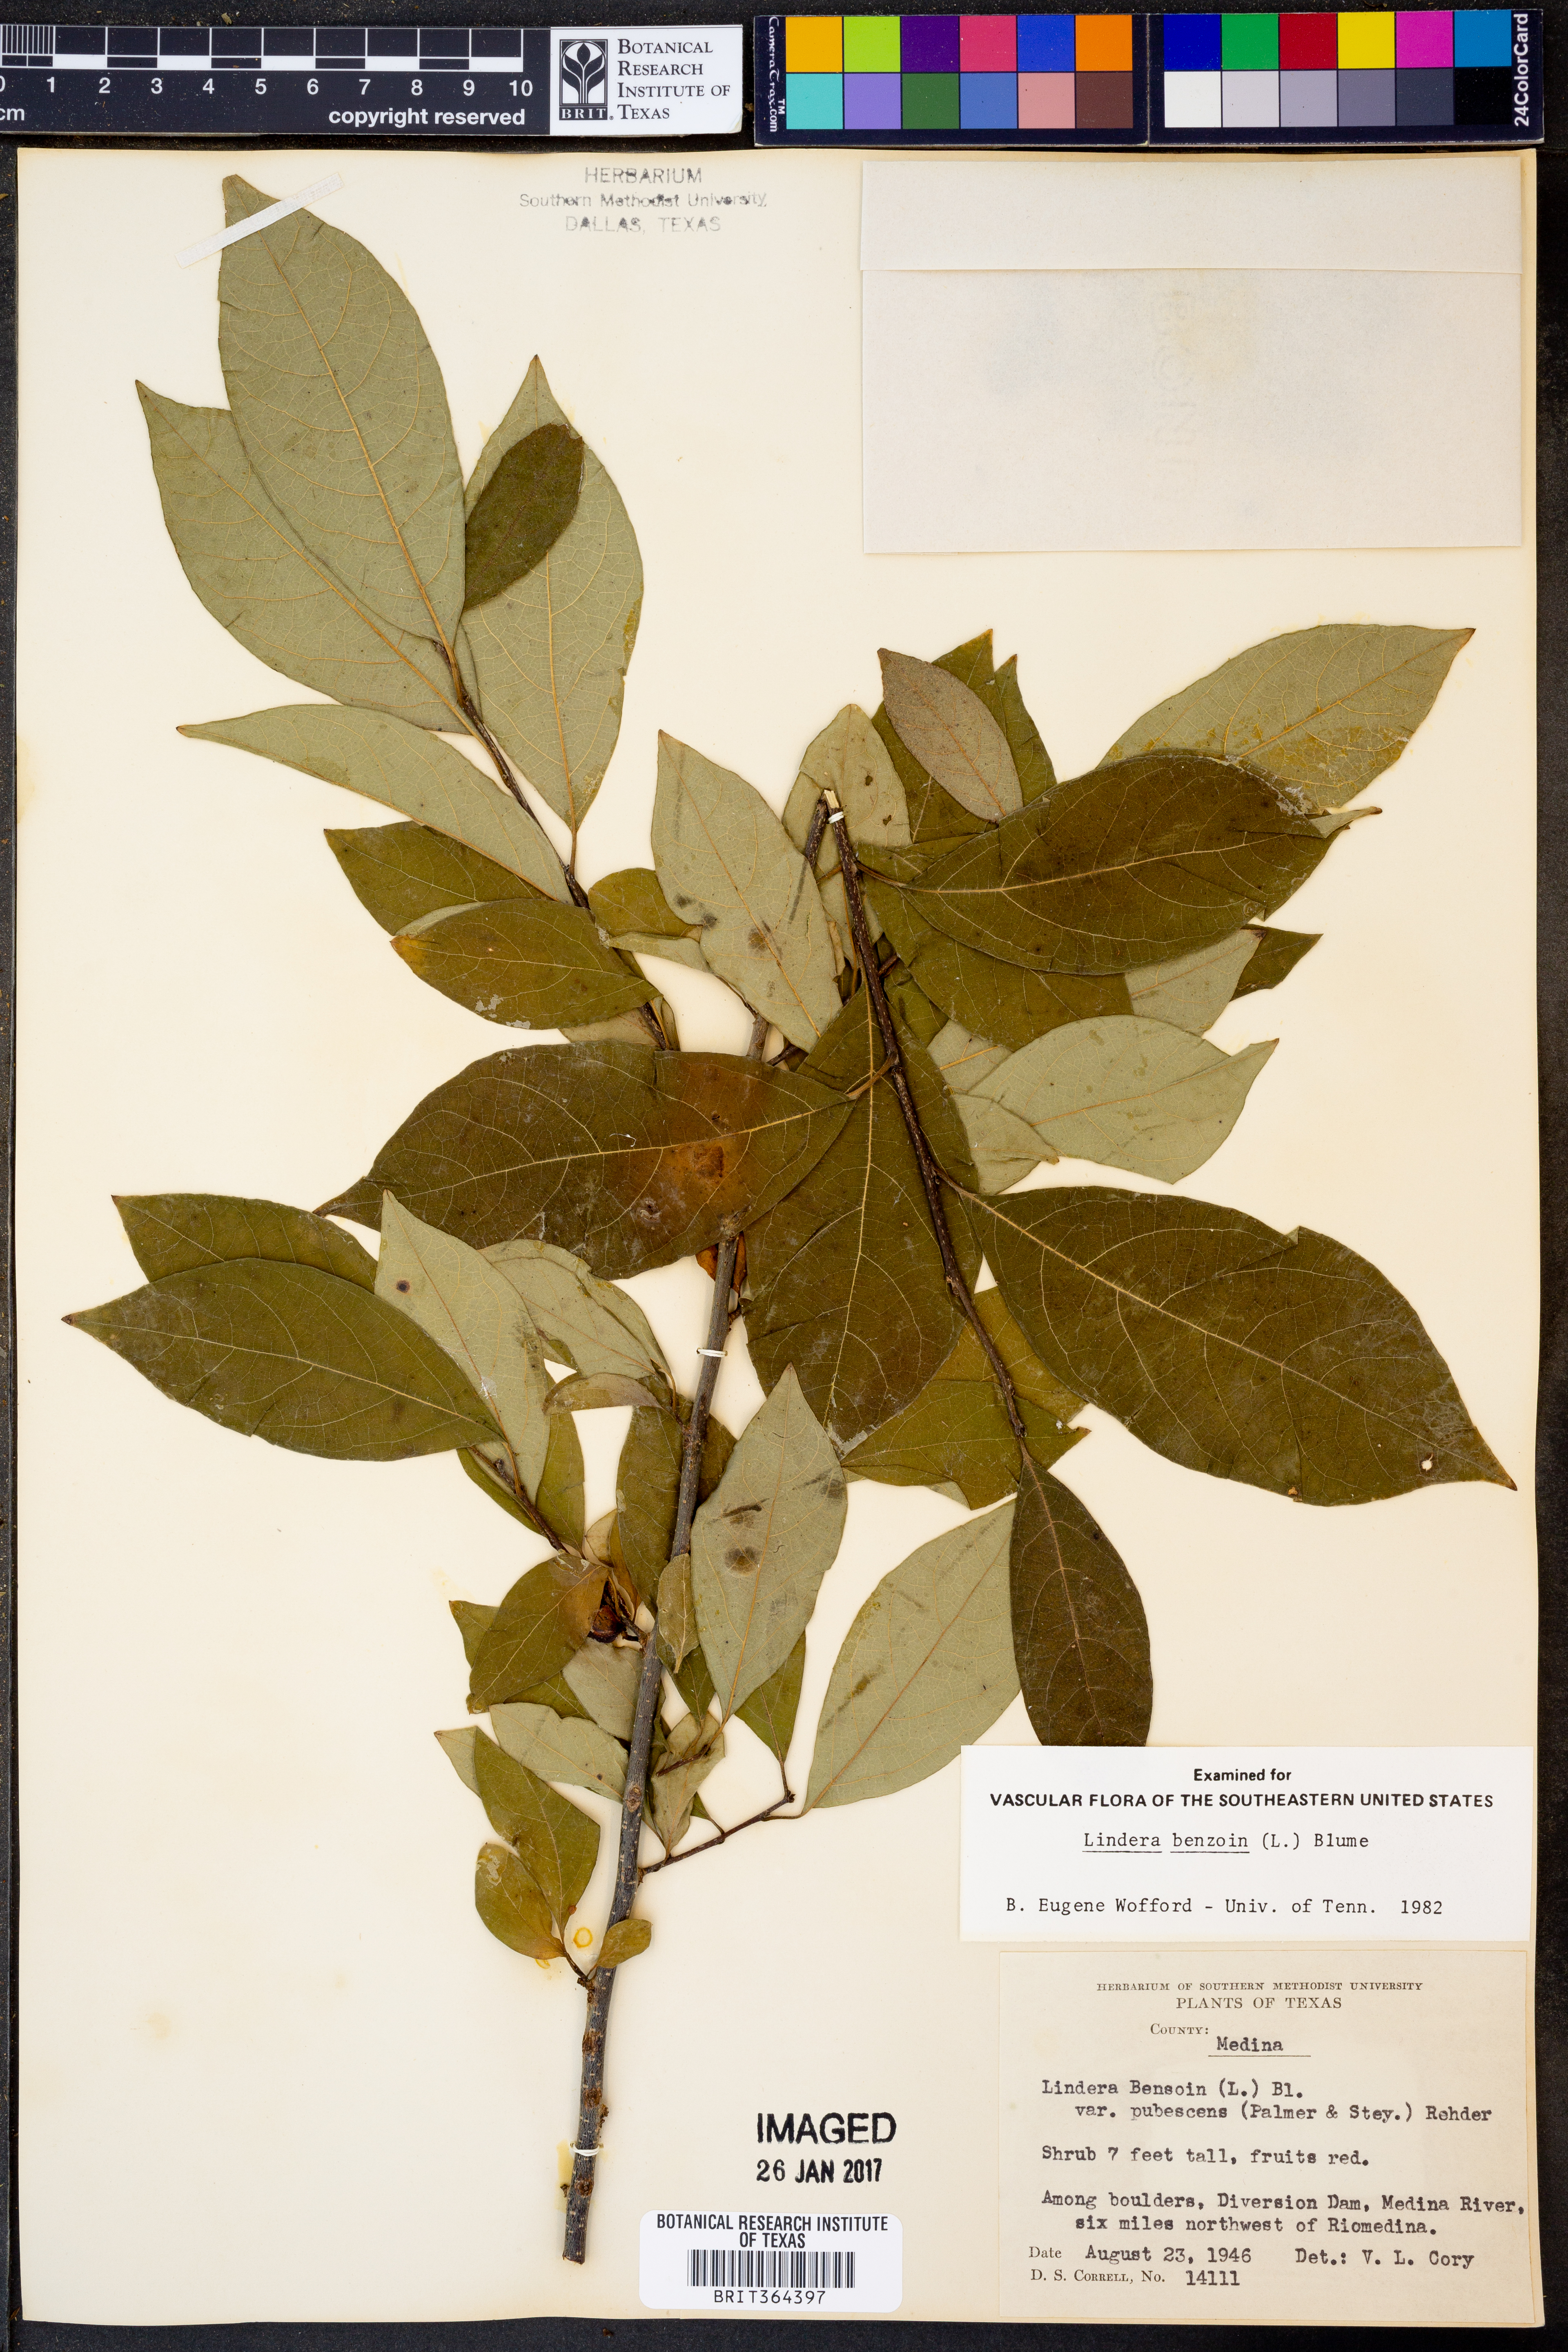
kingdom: Plantae
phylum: Tracheophyta
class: Magnoliopsida
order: Laurales
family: Lauraceae
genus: Lindera
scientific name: Lindera benzoin
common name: Spicebush
